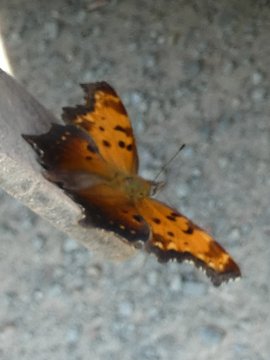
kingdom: Animalia
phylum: Arthropoda
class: Insecta
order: Lepidoptera
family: Nymphalidae
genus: Polygonia
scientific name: Polygonia progne
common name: Gray Comma
